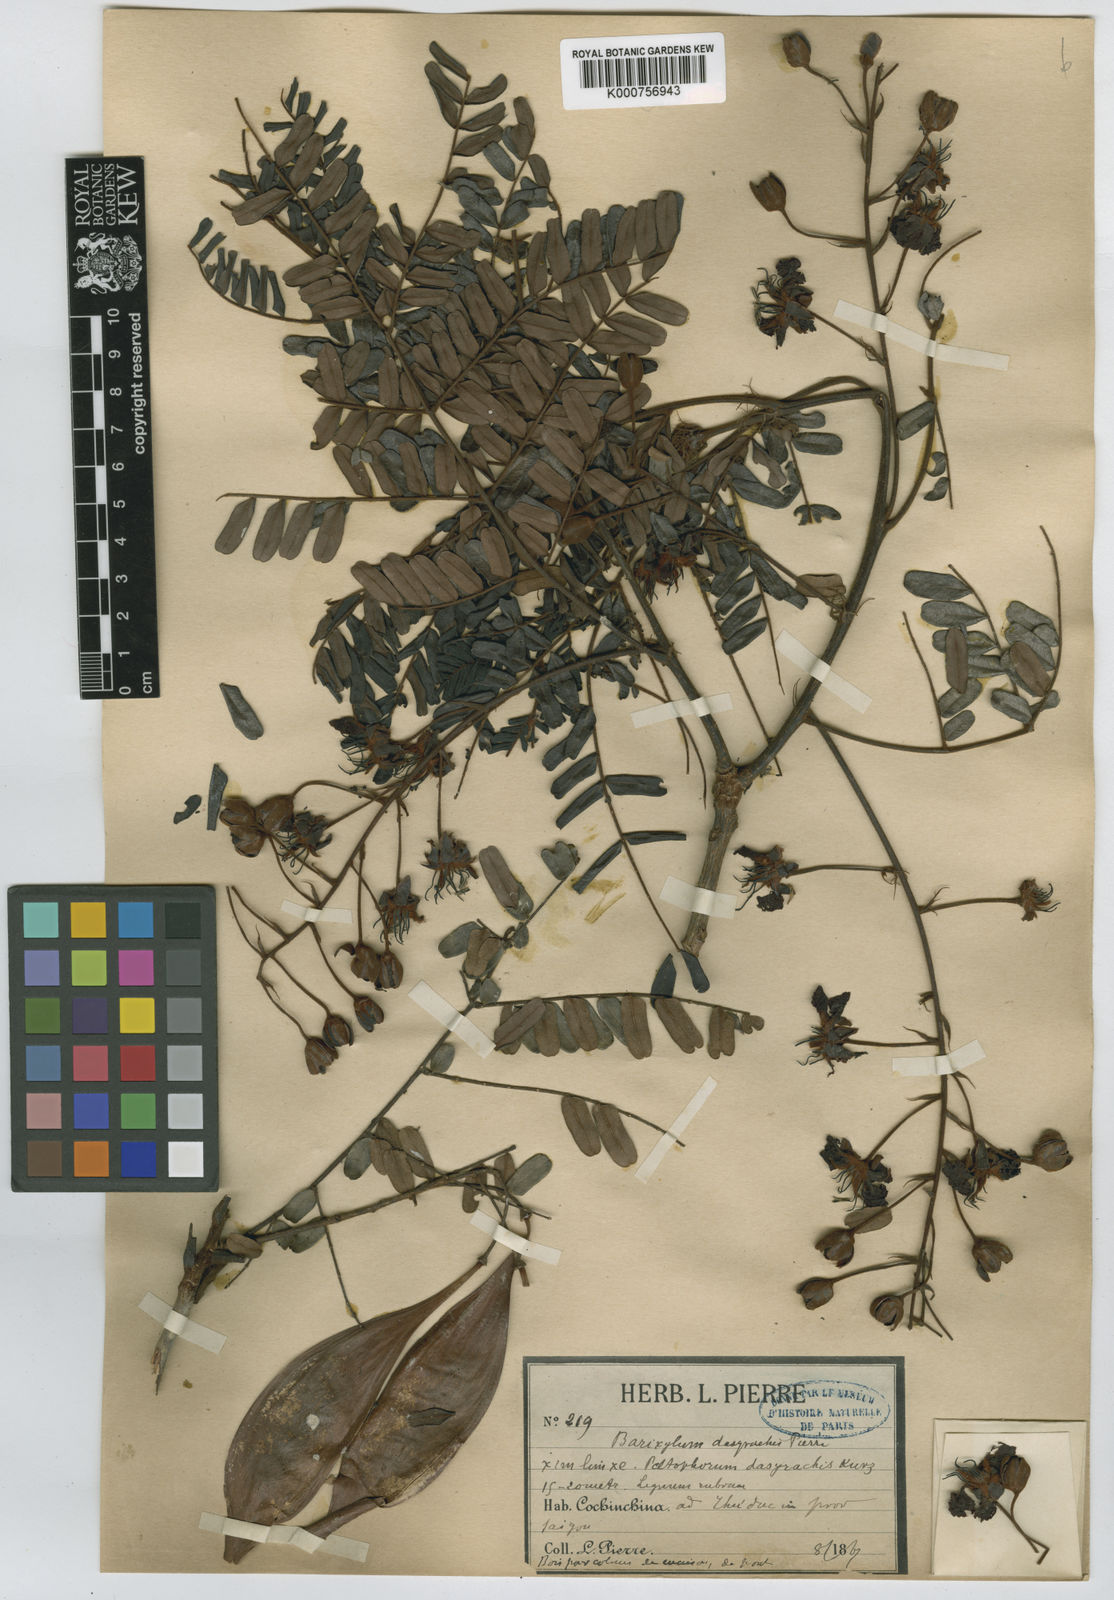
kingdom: Plantae
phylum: Tracheophyta
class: Magnoliopsida
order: Fabales
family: Fabaceae
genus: Peltophorum
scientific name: Peltophorum dasyrhachis
